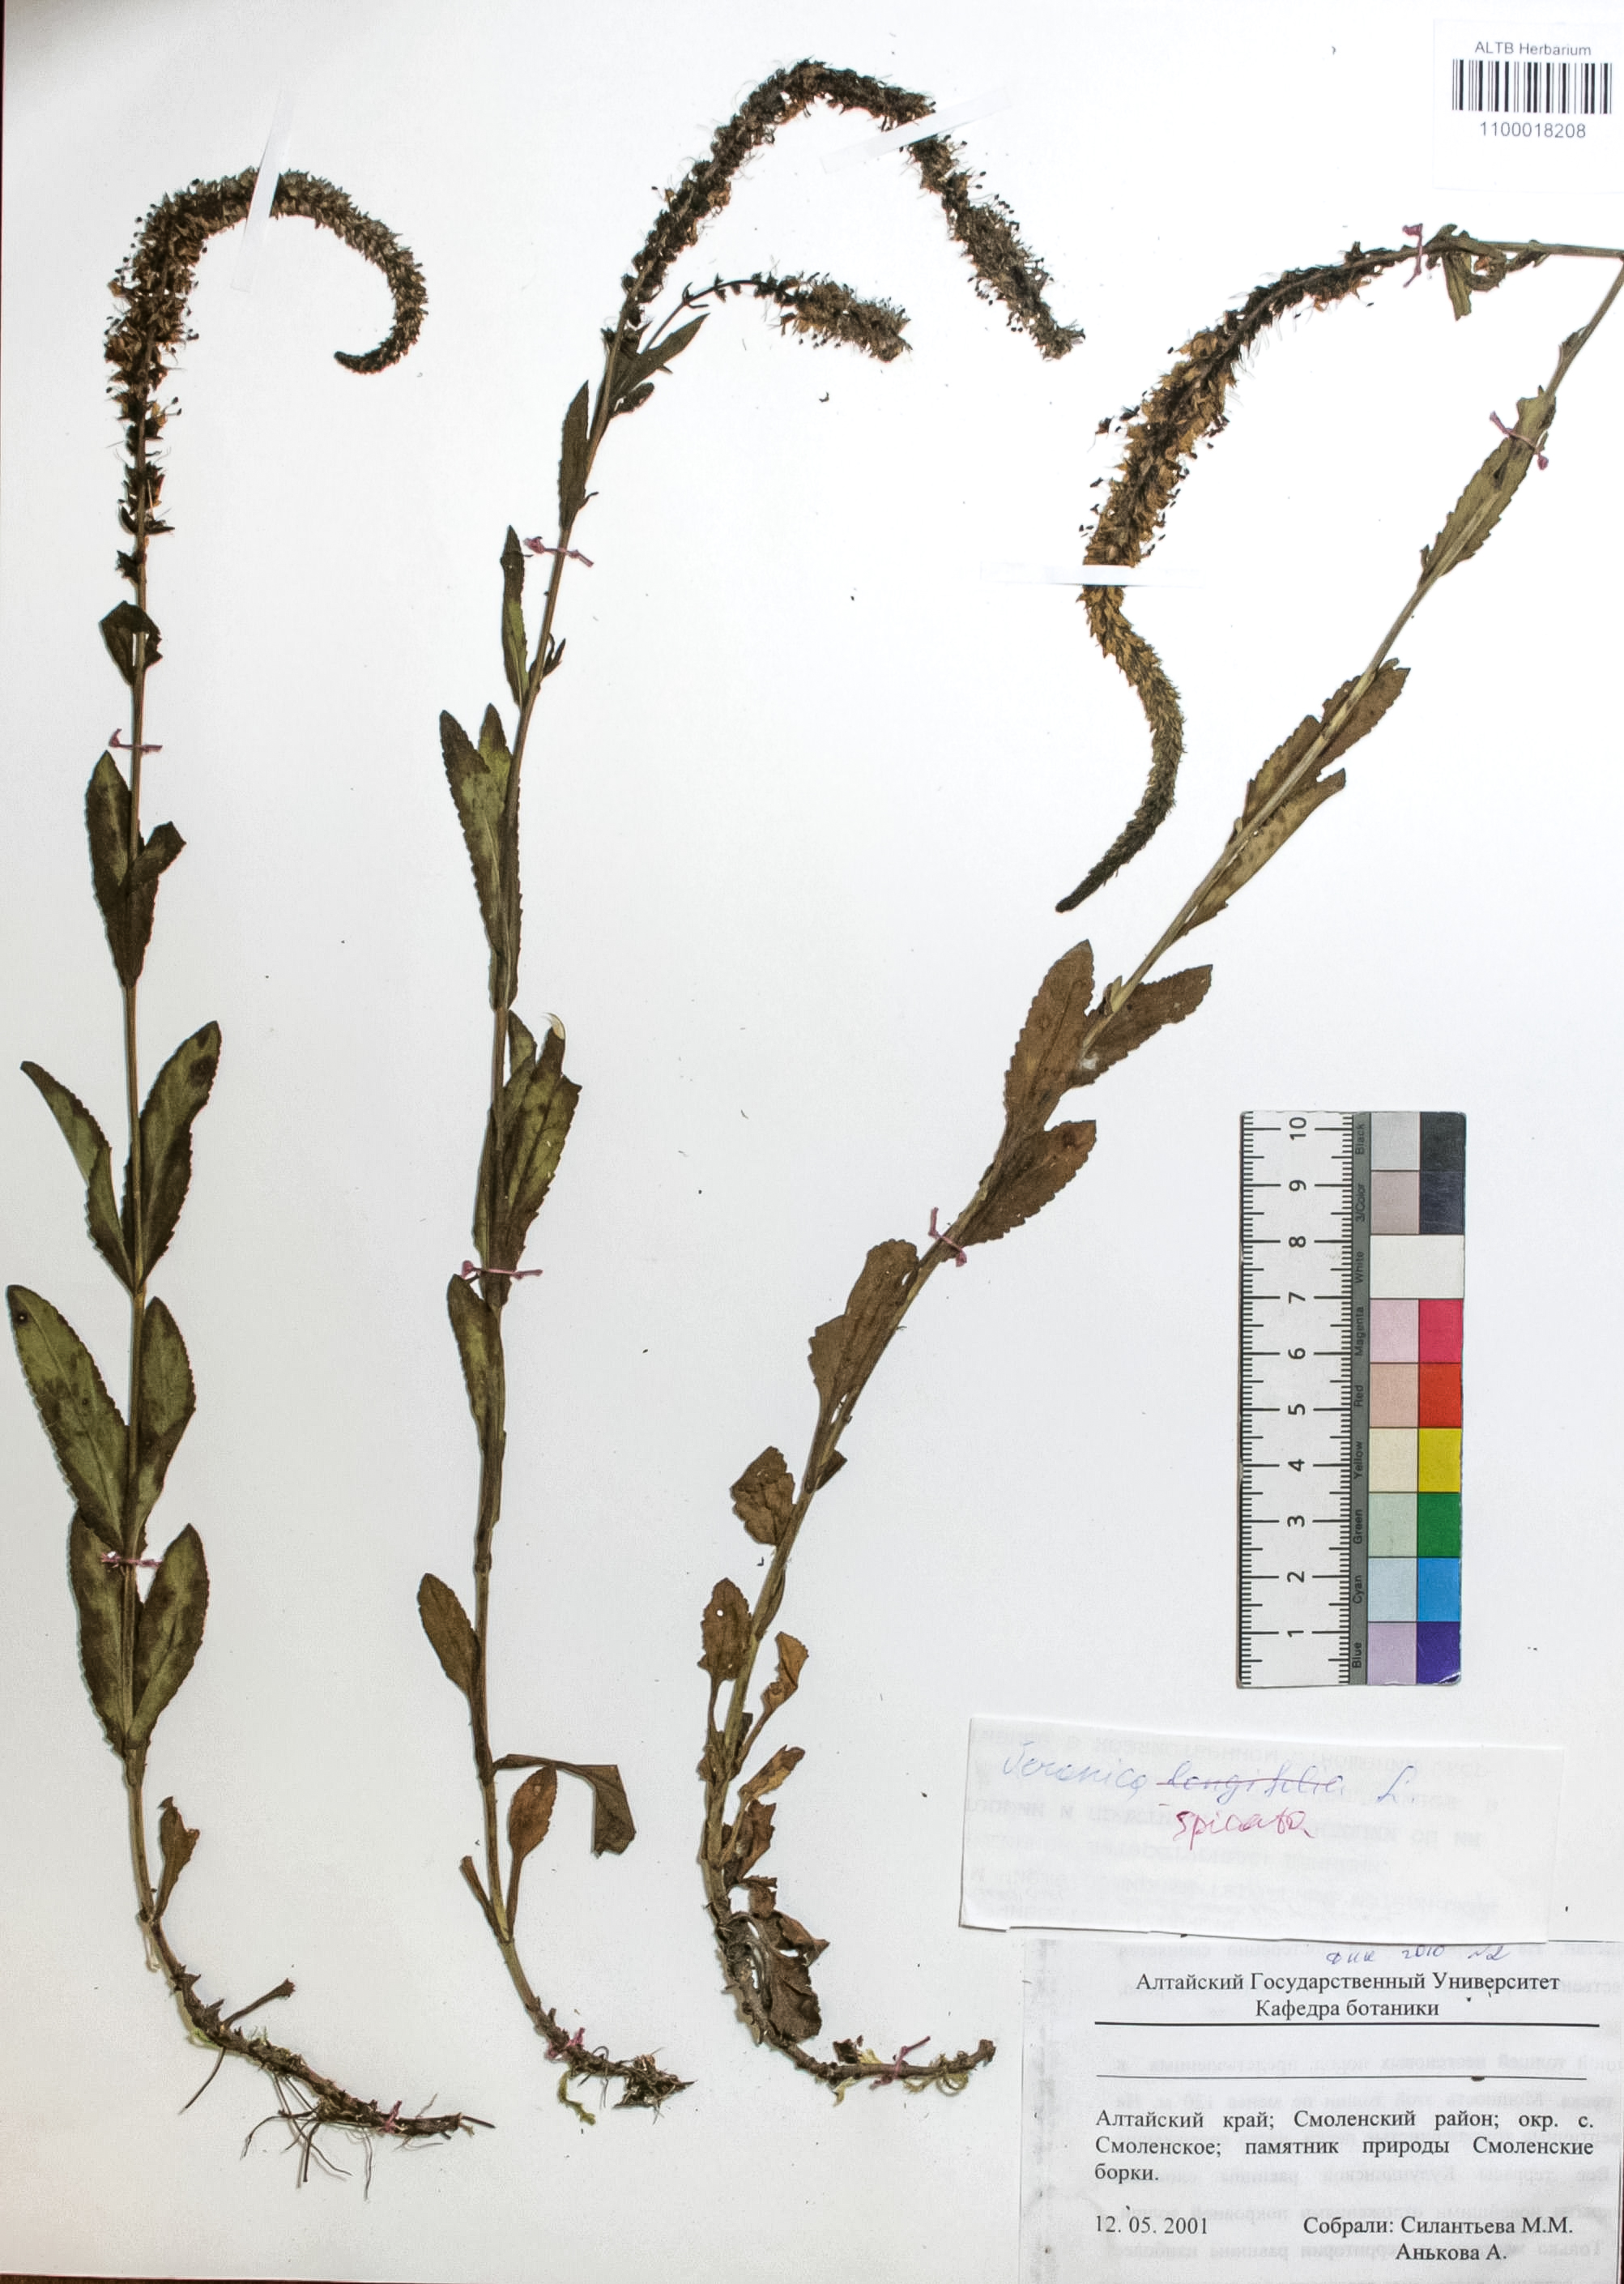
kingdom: Plantae
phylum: Tracheophyta
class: Magnoliopsida
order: Lamiales
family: Plantaginaceae
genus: Veronica
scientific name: Veronica spicata
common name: Spiked speedwell
